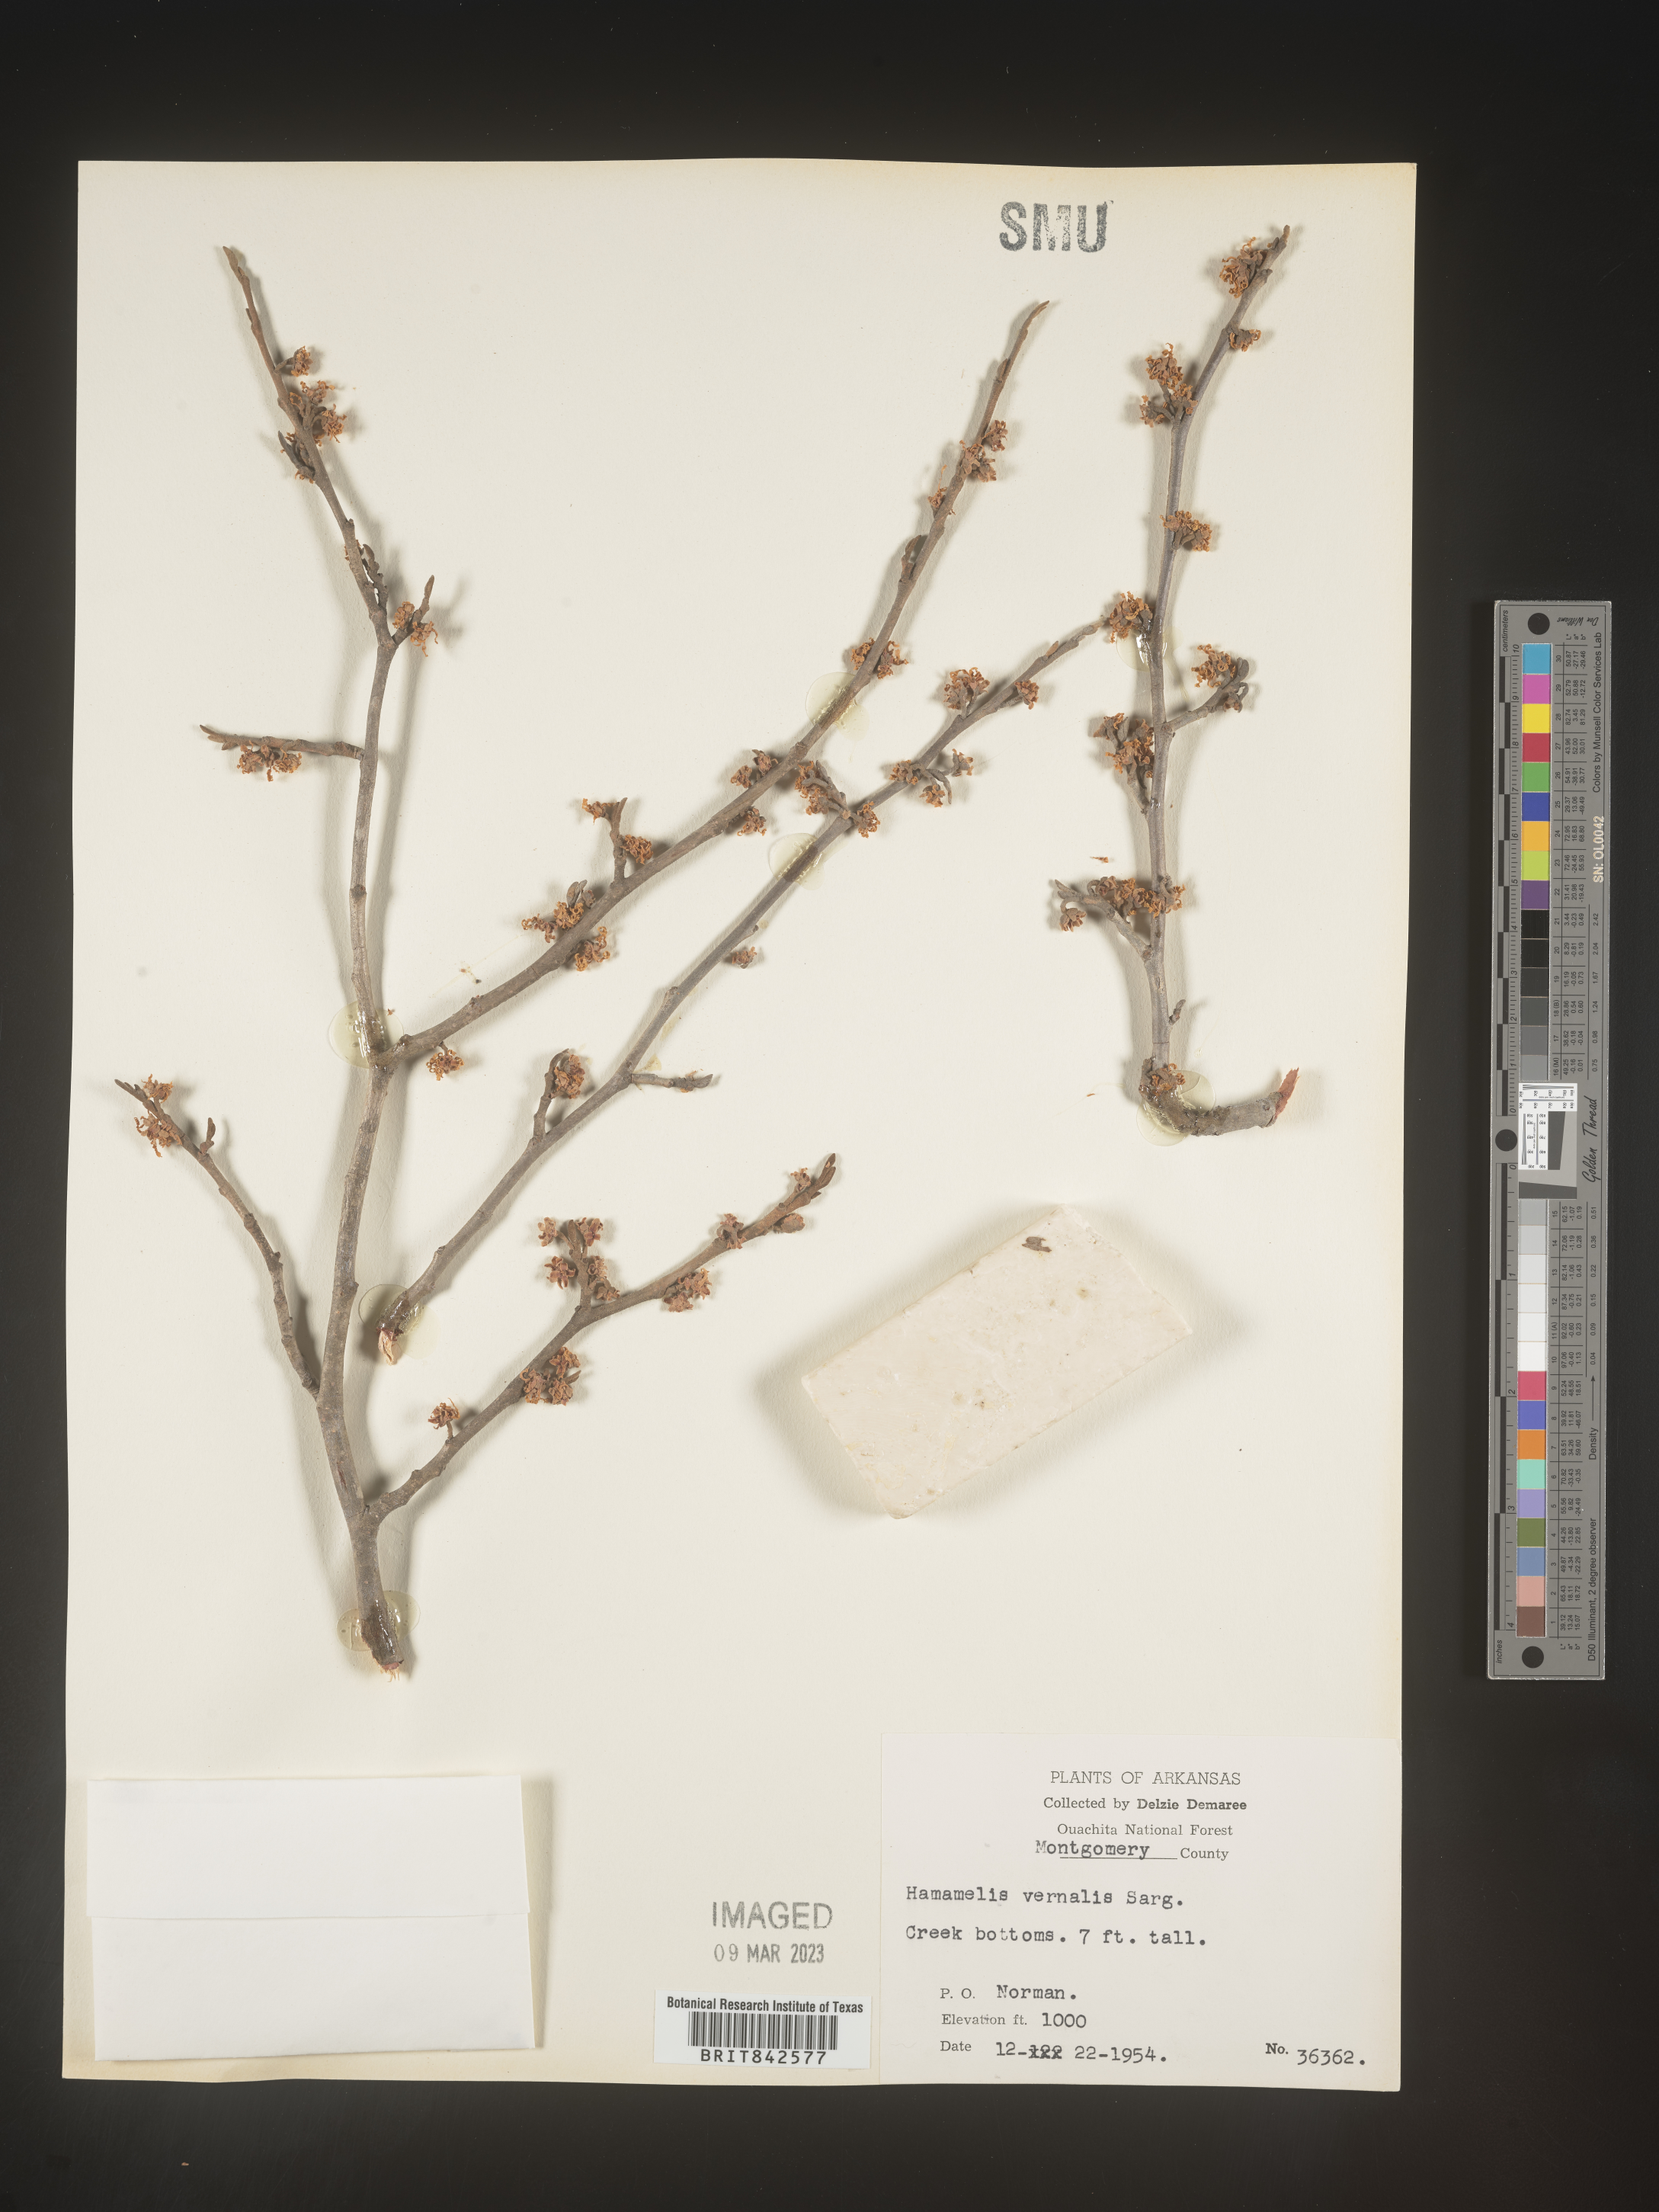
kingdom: Plantae
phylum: Tracheophyta
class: Magnoliopsida
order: Saxifragales
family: Hamamelidaceae
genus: Hamamelis
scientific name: Hamamelis vernalis
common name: Ozark witch-hazel
